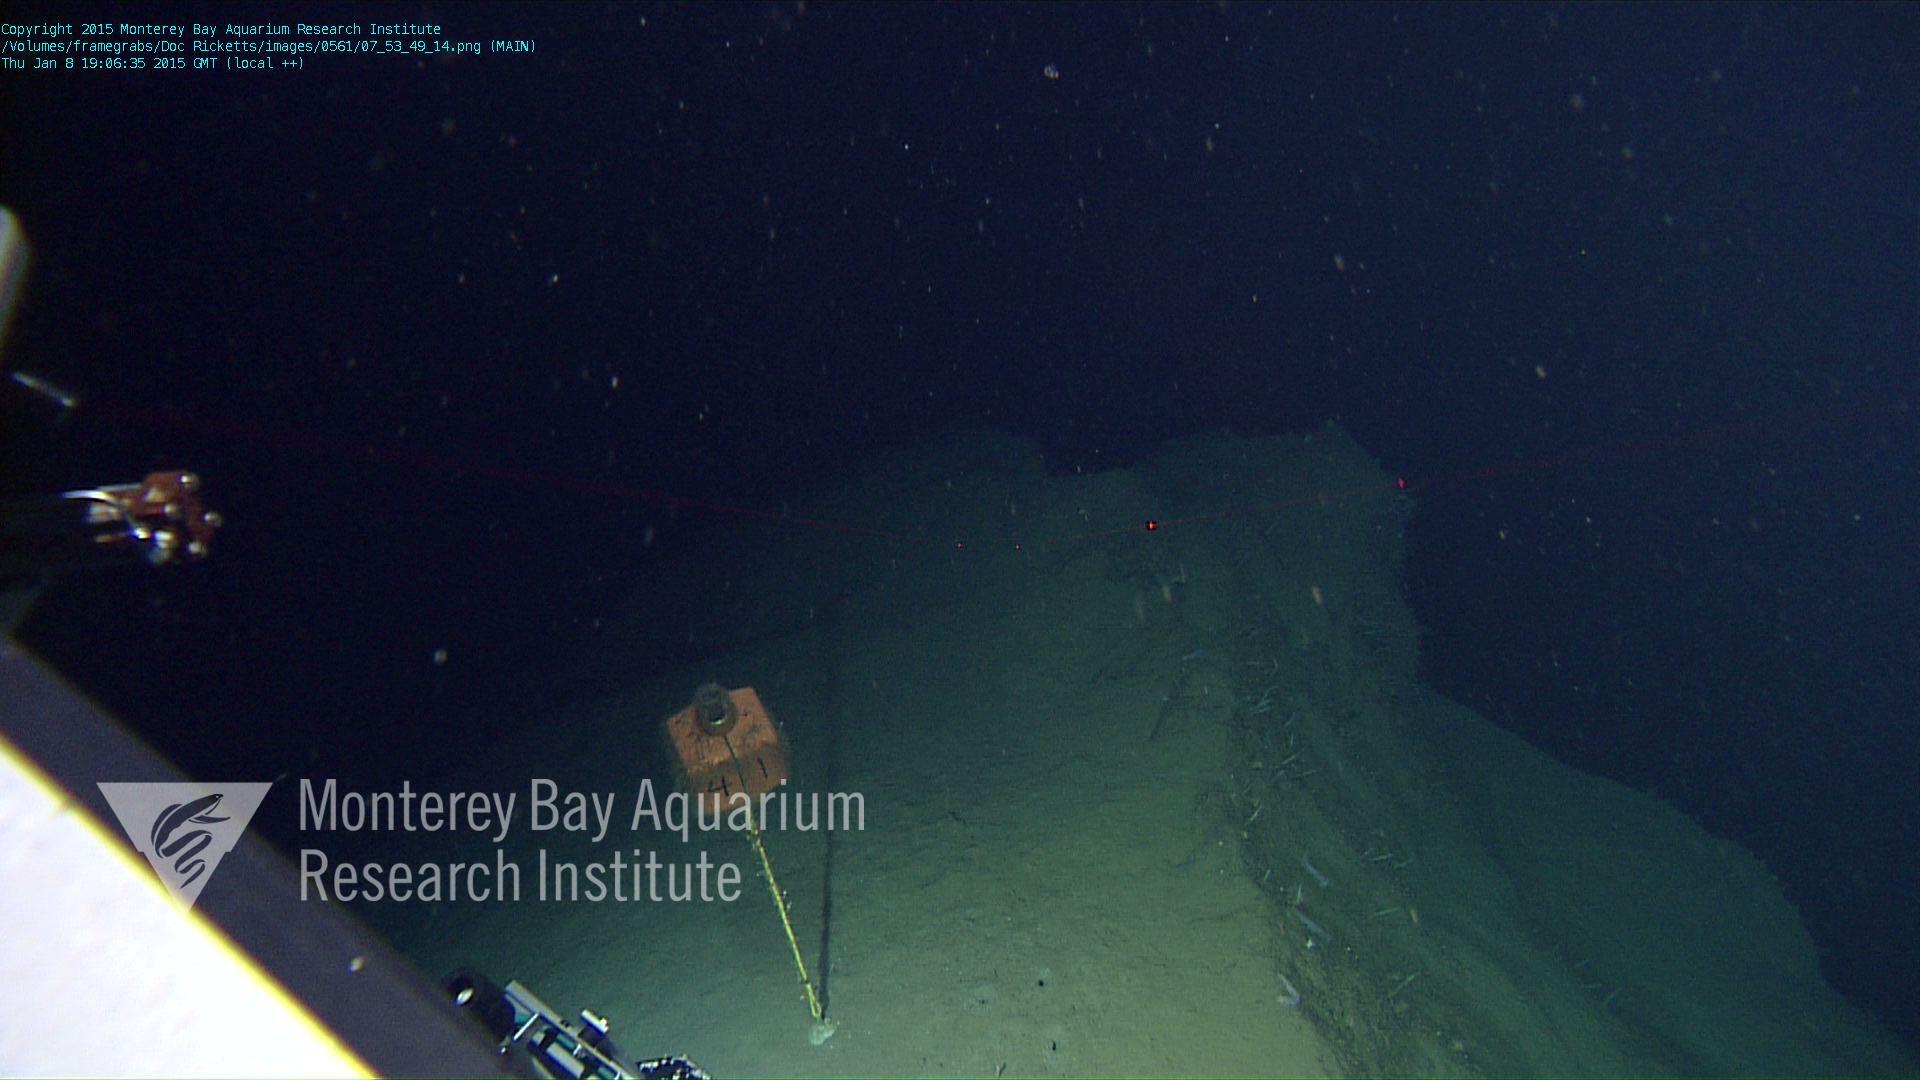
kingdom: Animalia
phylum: Porifera
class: Demospongiae
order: Poecilosclerida
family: Cladorhizidae
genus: Cladorhiza
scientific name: Cladorhiza
